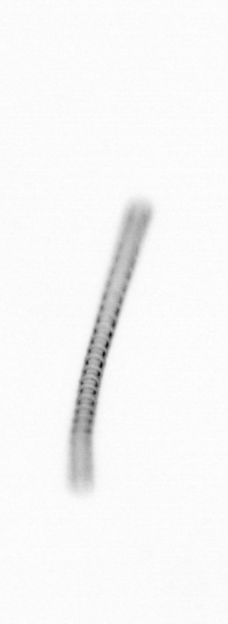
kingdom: Chromista
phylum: Ochrophyta
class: Bacillariophyceae
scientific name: Bacillariophyceae
